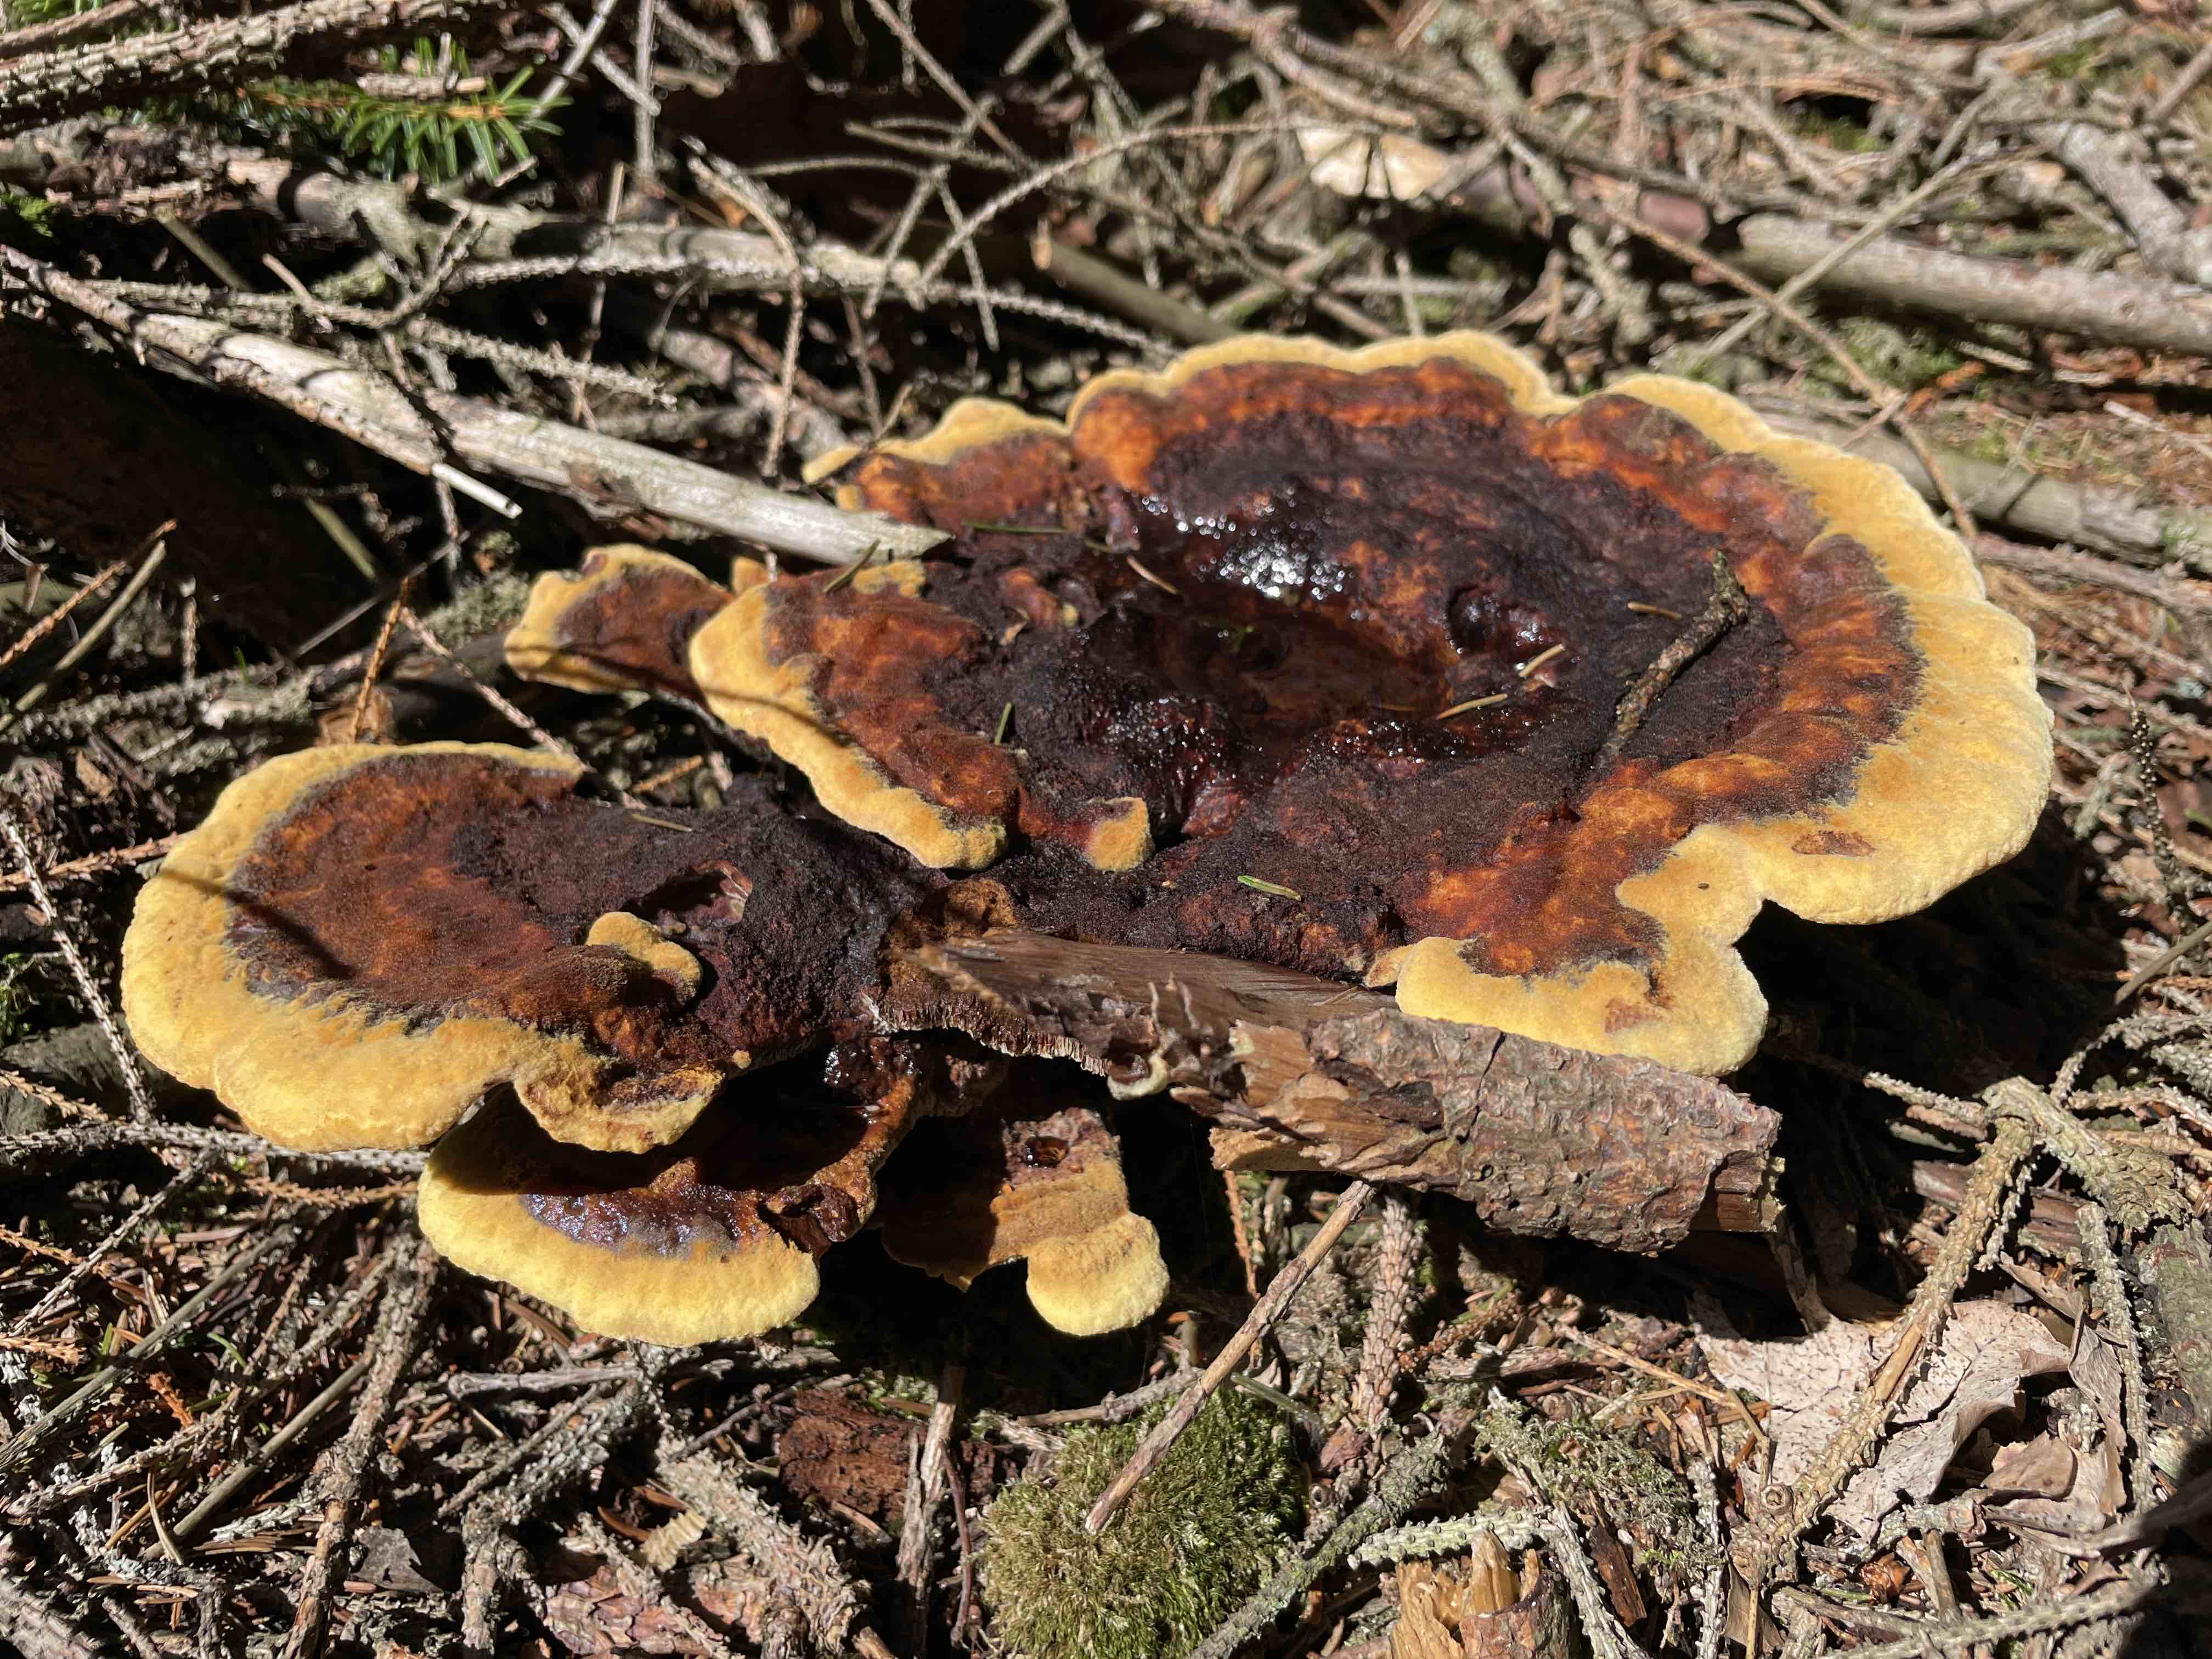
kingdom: Fungi
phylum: Basidiomycota
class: Agaricomycetes
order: Polyporales
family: Laetiporaceae
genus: Phaeolus
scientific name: Phaeolus schweinitzii
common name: brunporesvamp
